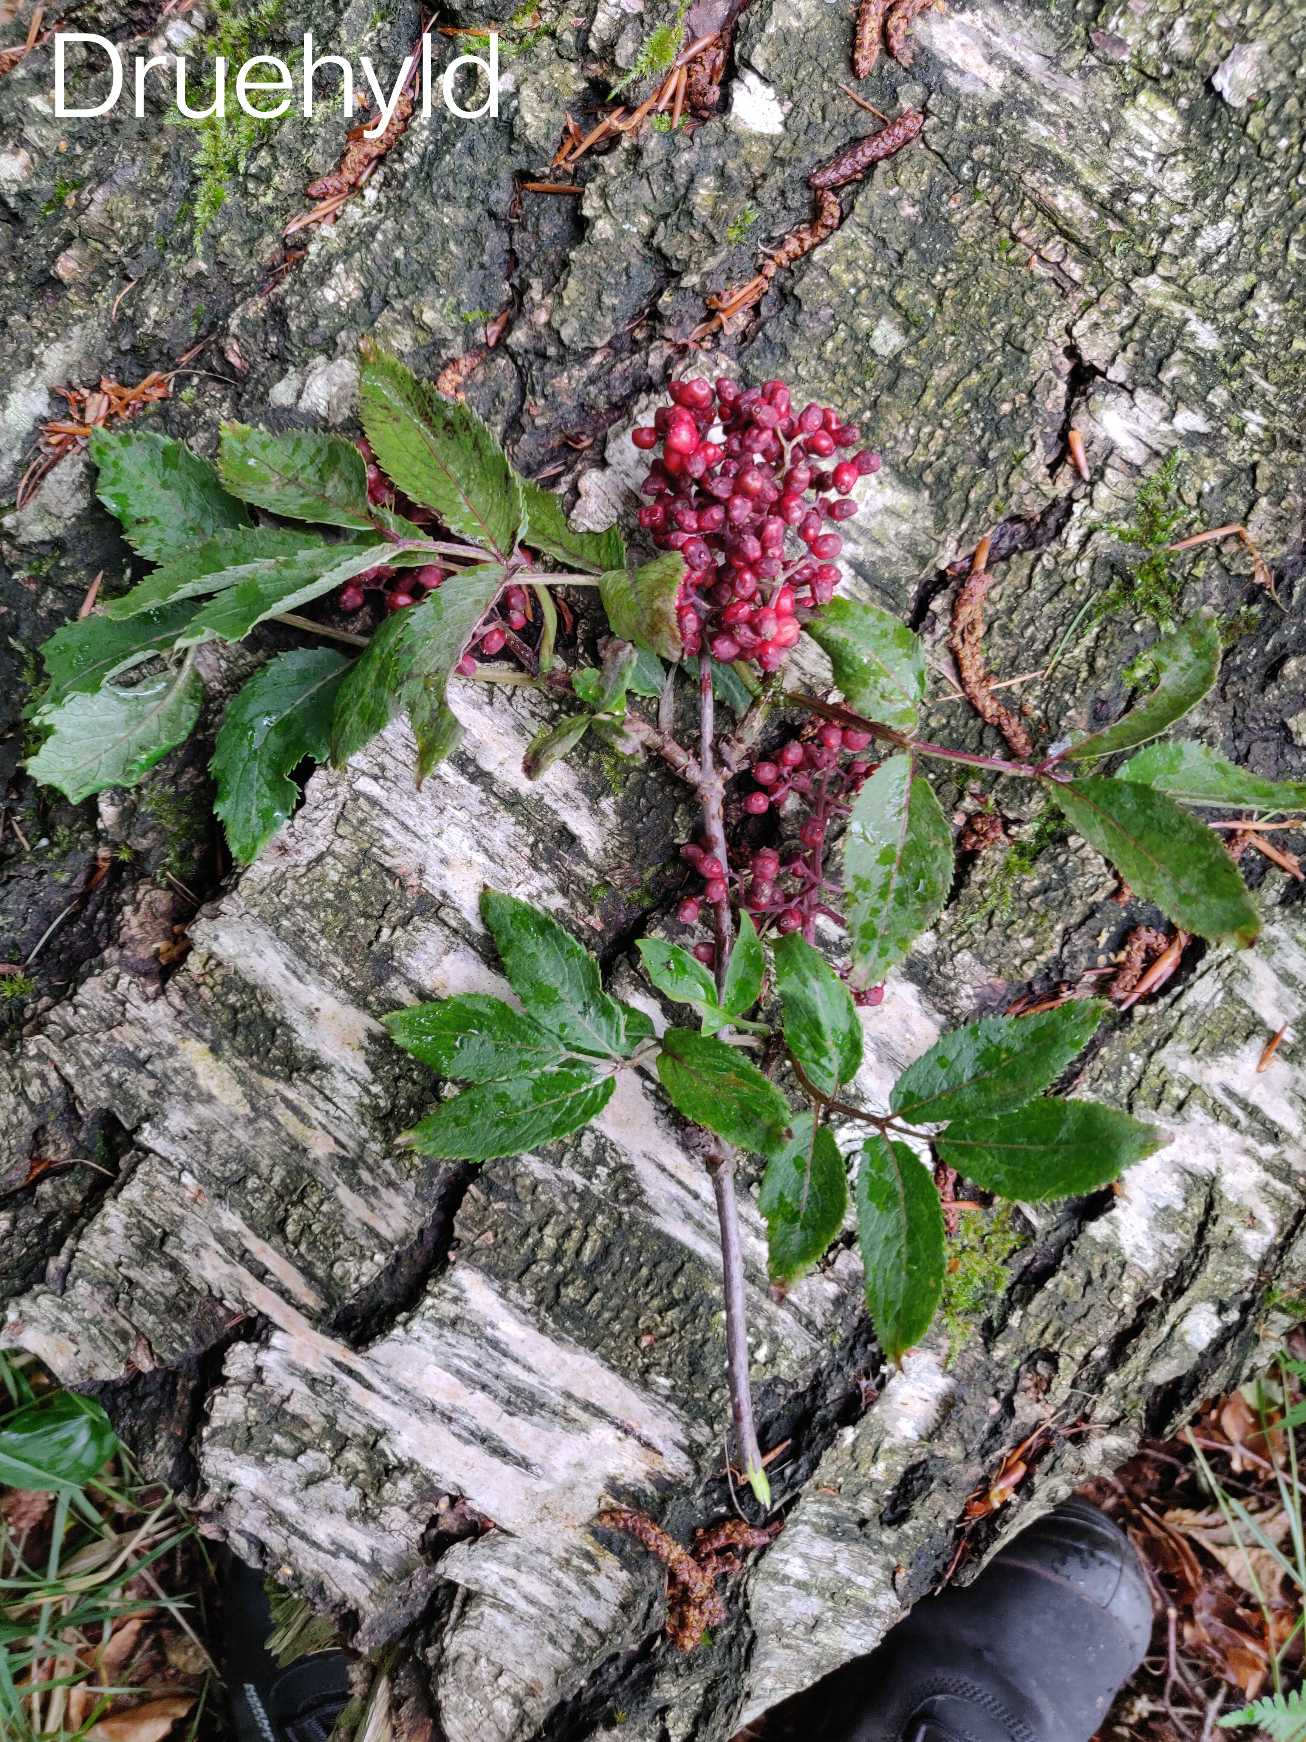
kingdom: Plantae
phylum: Tracheophyta
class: Magnoliopsida
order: Dipsacales
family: Viburnaceae
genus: Sambucus
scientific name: Sambucus racemosa
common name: Drue-hyld
